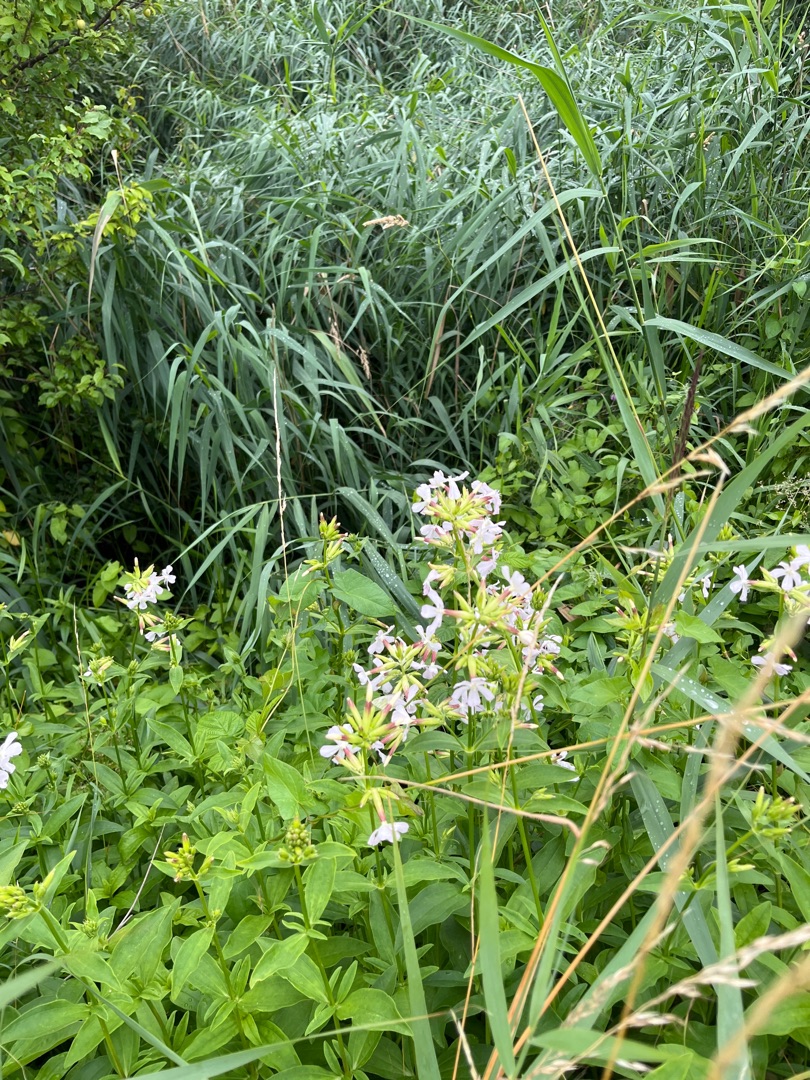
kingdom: Plantae
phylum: Tracheophyta
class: Magnoliopsida
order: Caryophyllales
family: Caryophyllaceae
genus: Saponaria
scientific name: Saponaria officinalis
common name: Sæbeurt
